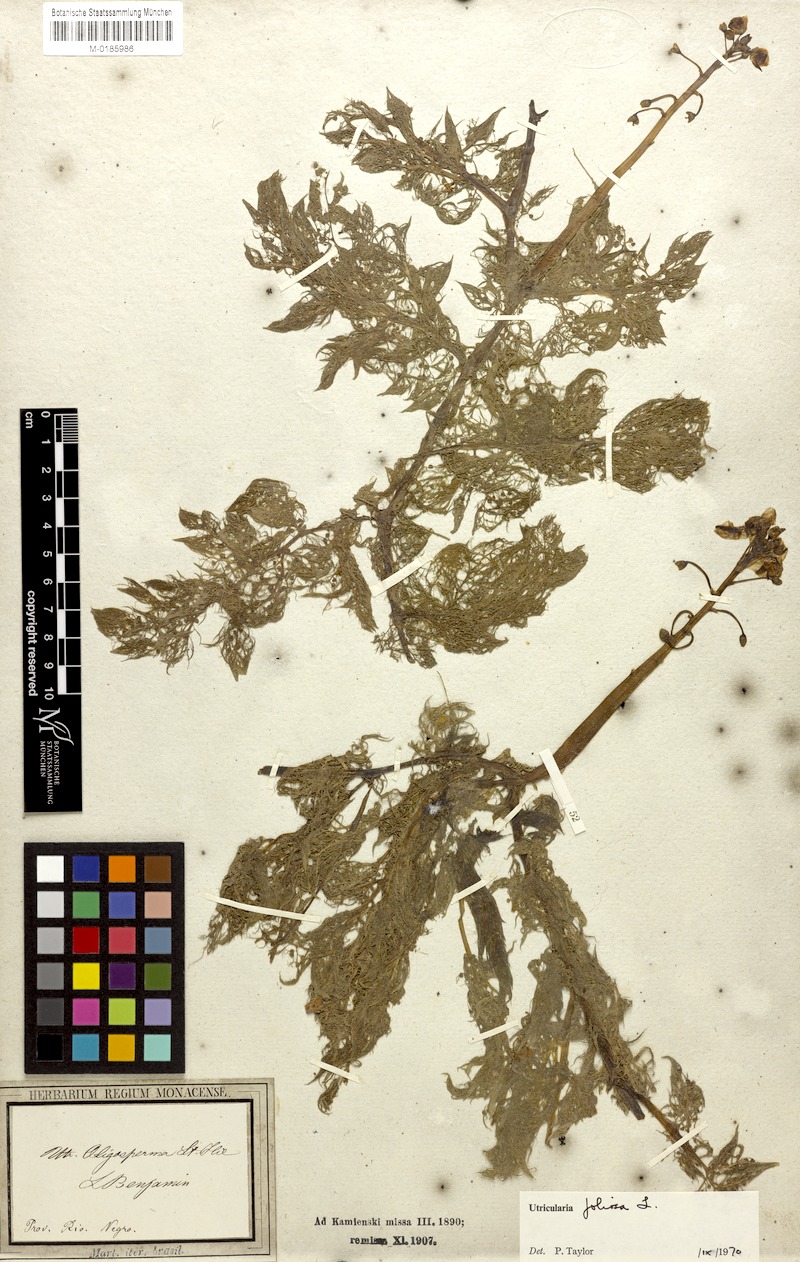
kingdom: Plantae
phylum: Tracheophyta
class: Magnoliopsida
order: Lamiales
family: Lentibulariaceae
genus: Utricularia
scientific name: Utricularia foliosa
